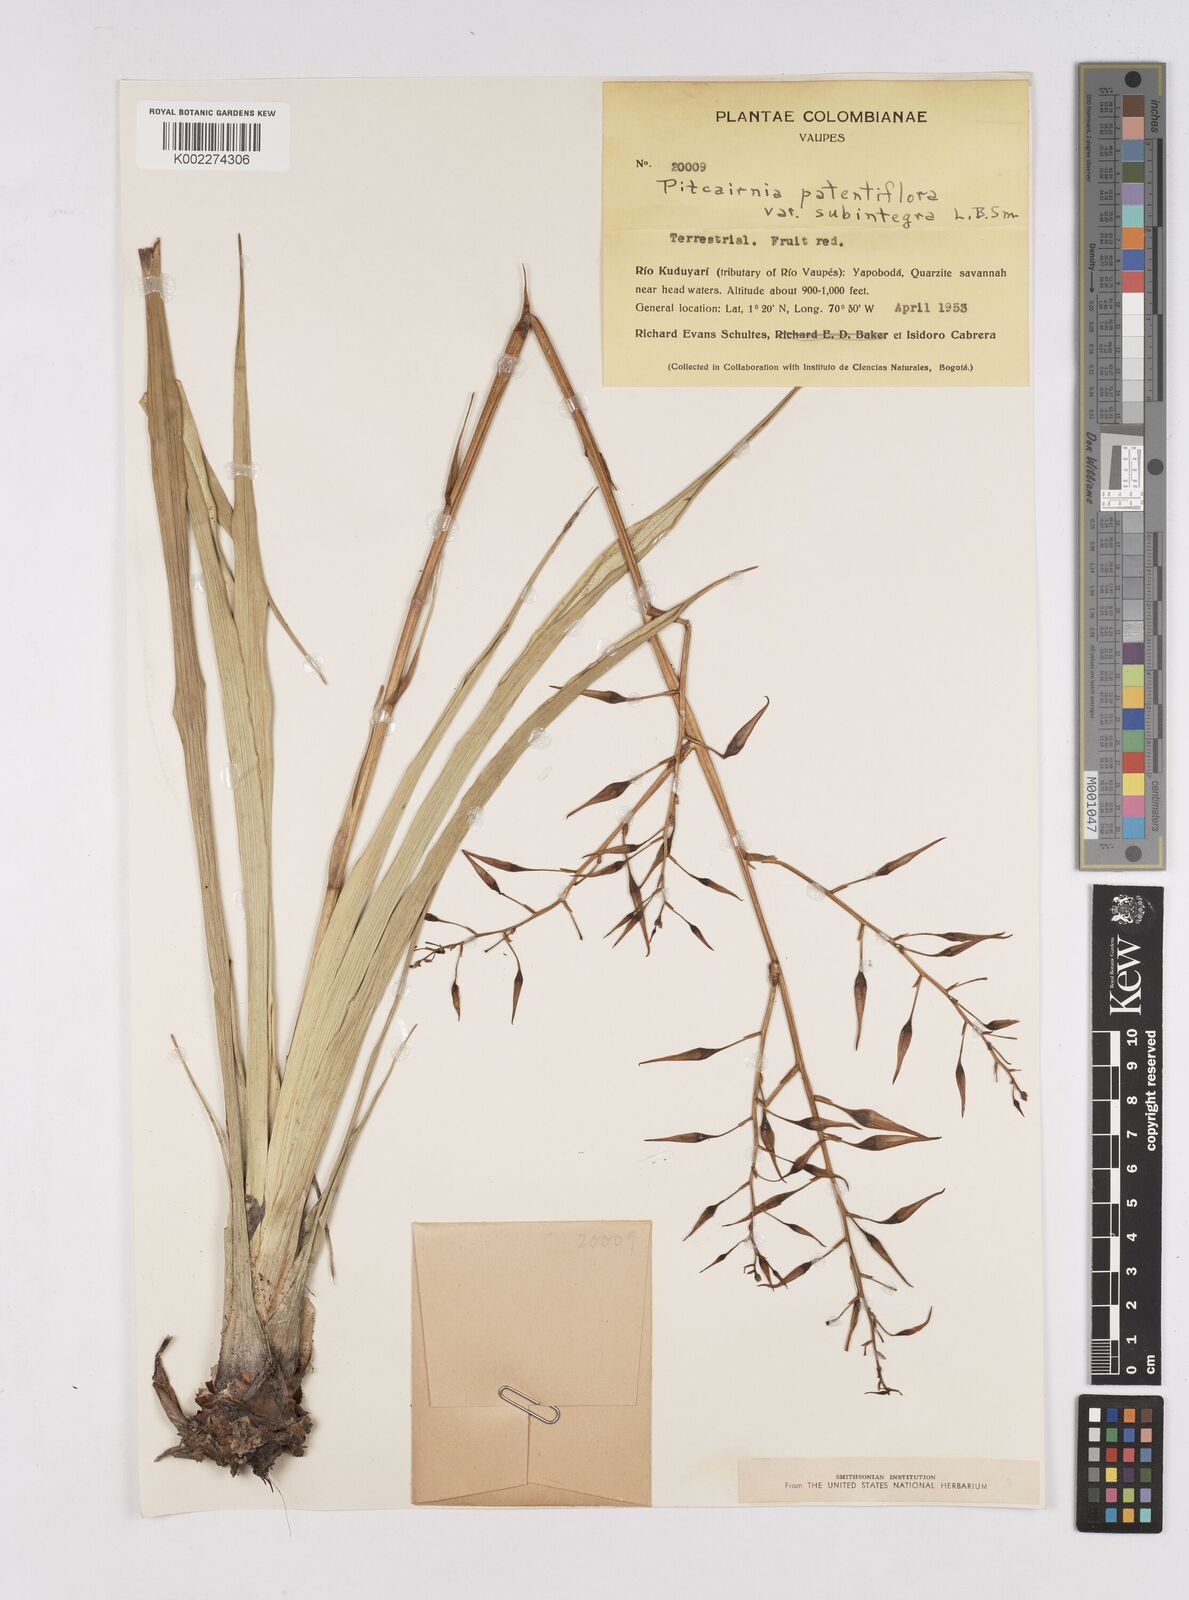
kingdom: Plantae
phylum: Tracheophyta
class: Liliopsida
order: Poales
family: Bromeliaceae
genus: Pitcairnia
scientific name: Pitcairnia patentiflora
